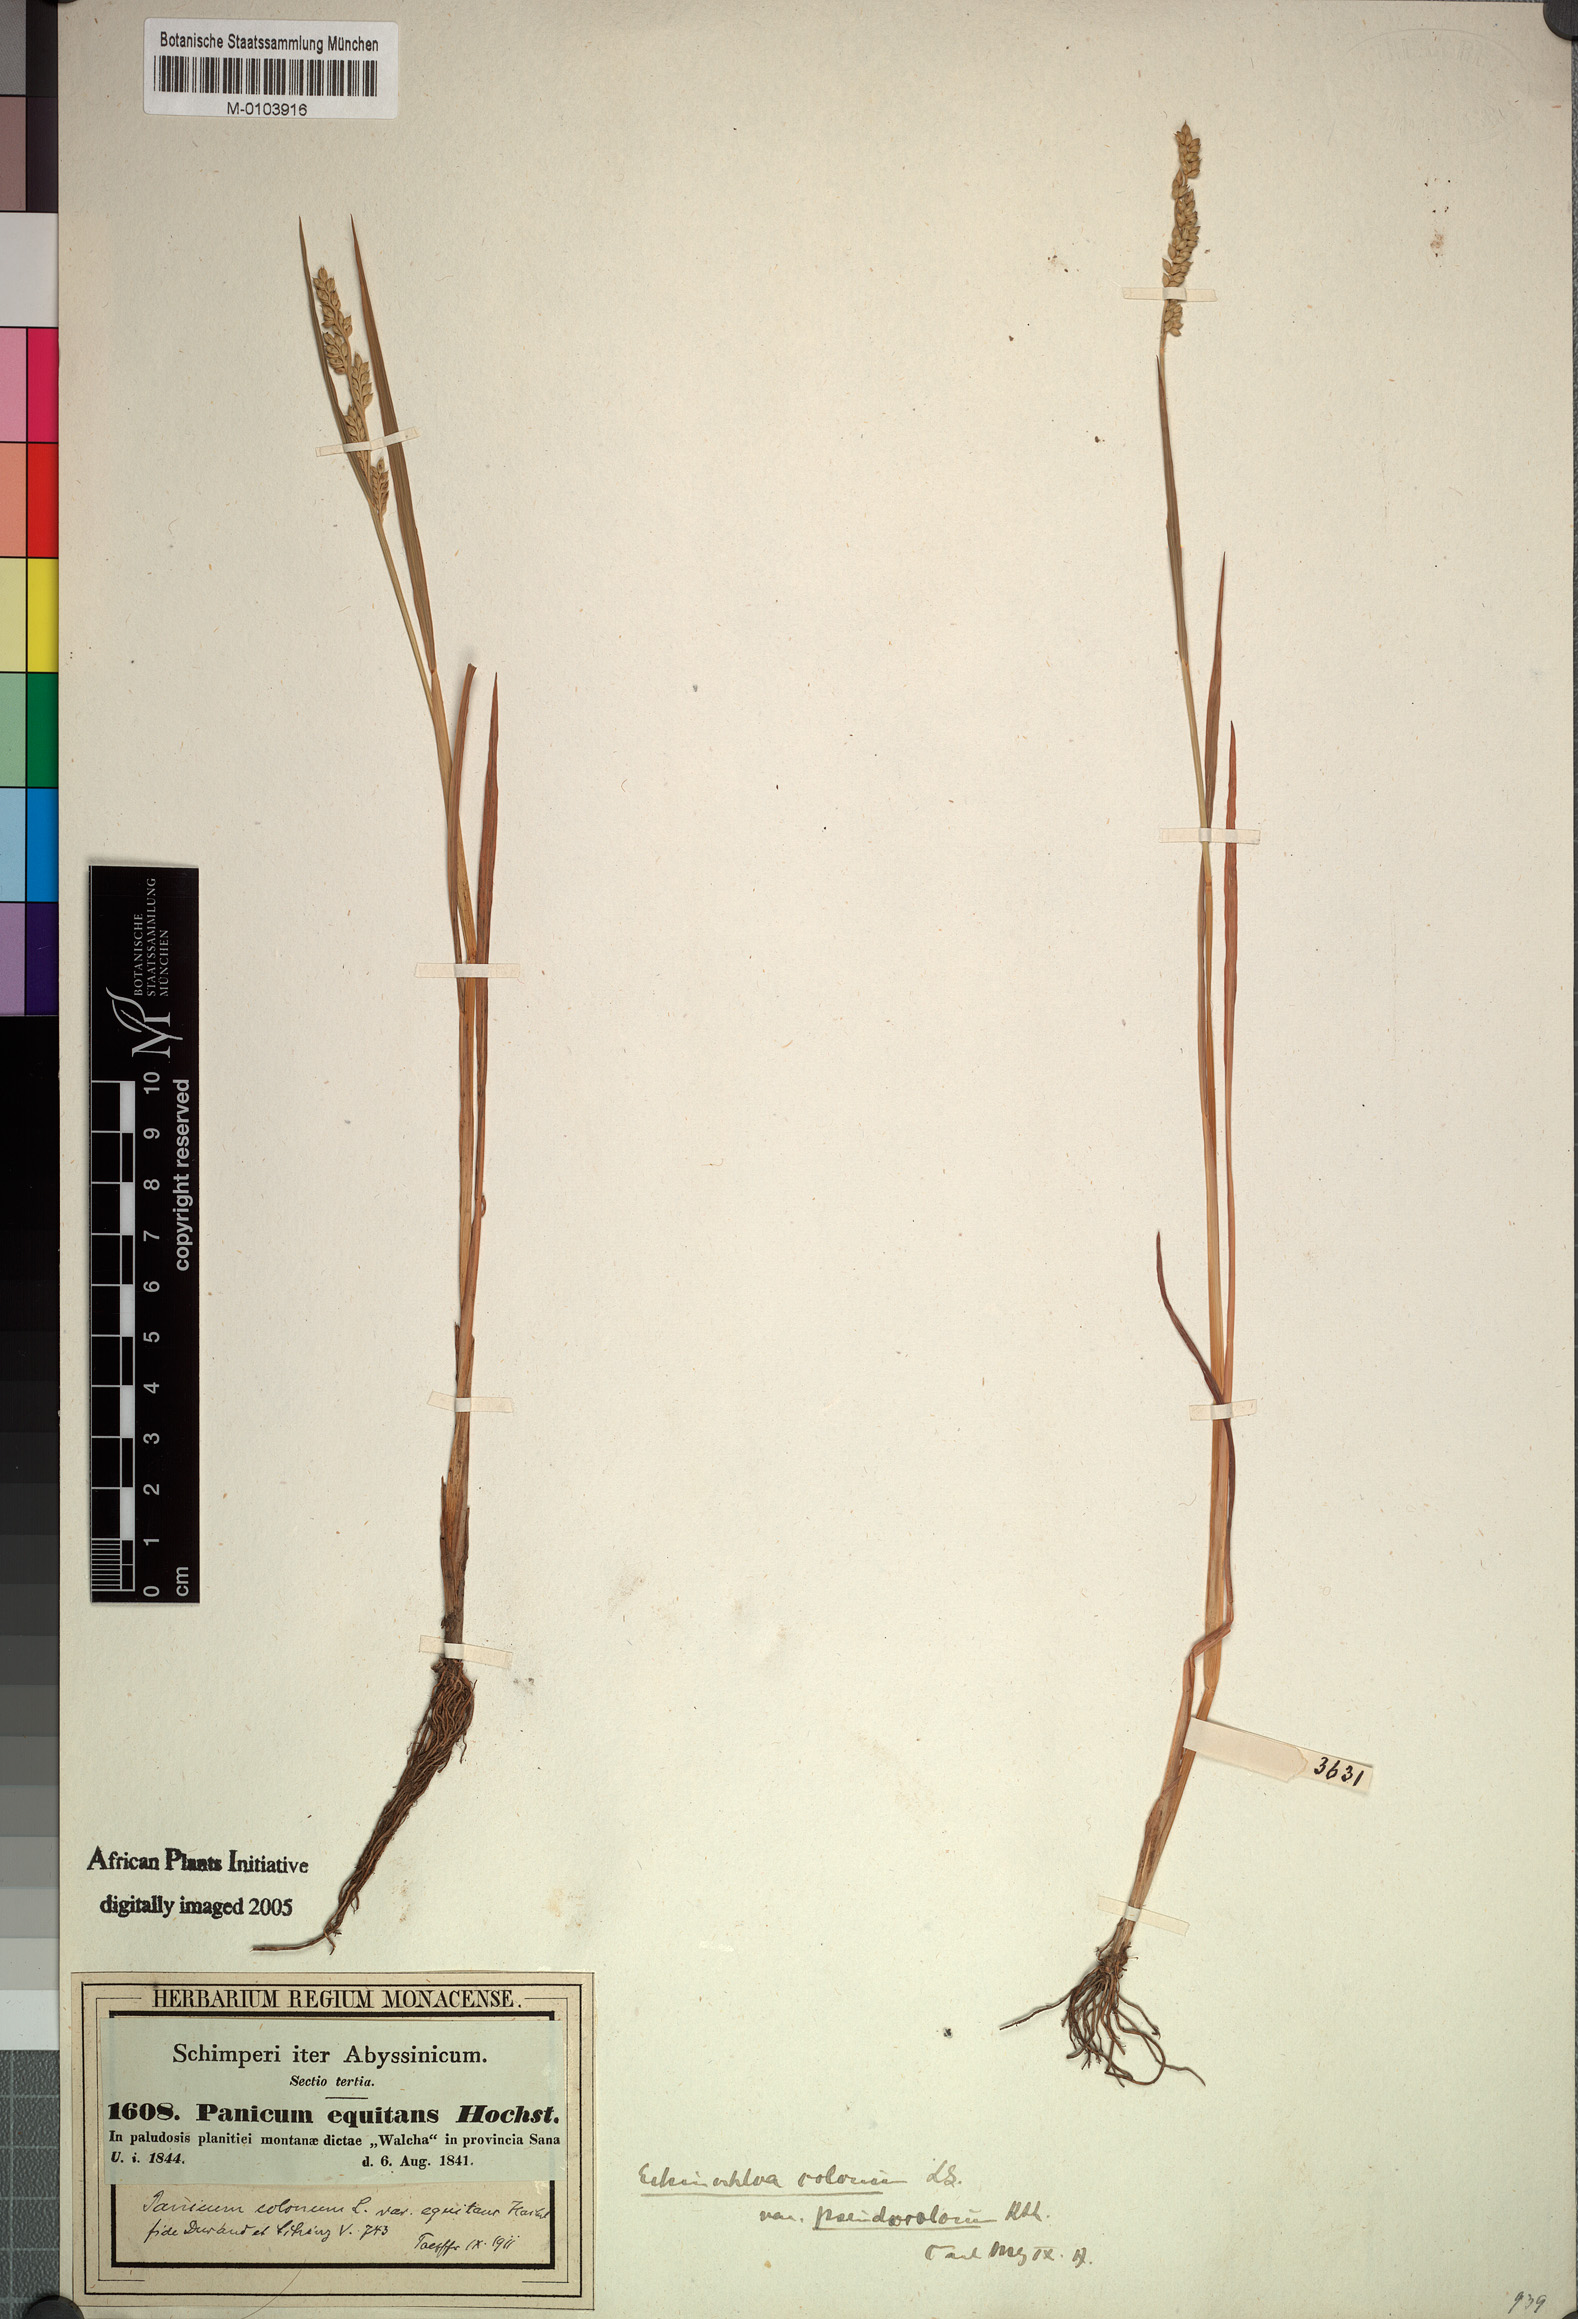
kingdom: Plantae
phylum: Tracheophyta
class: Liliopsida
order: Poales
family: Poaceae
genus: Echinochloa
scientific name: Echinochloa colonum
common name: Jungle rice
